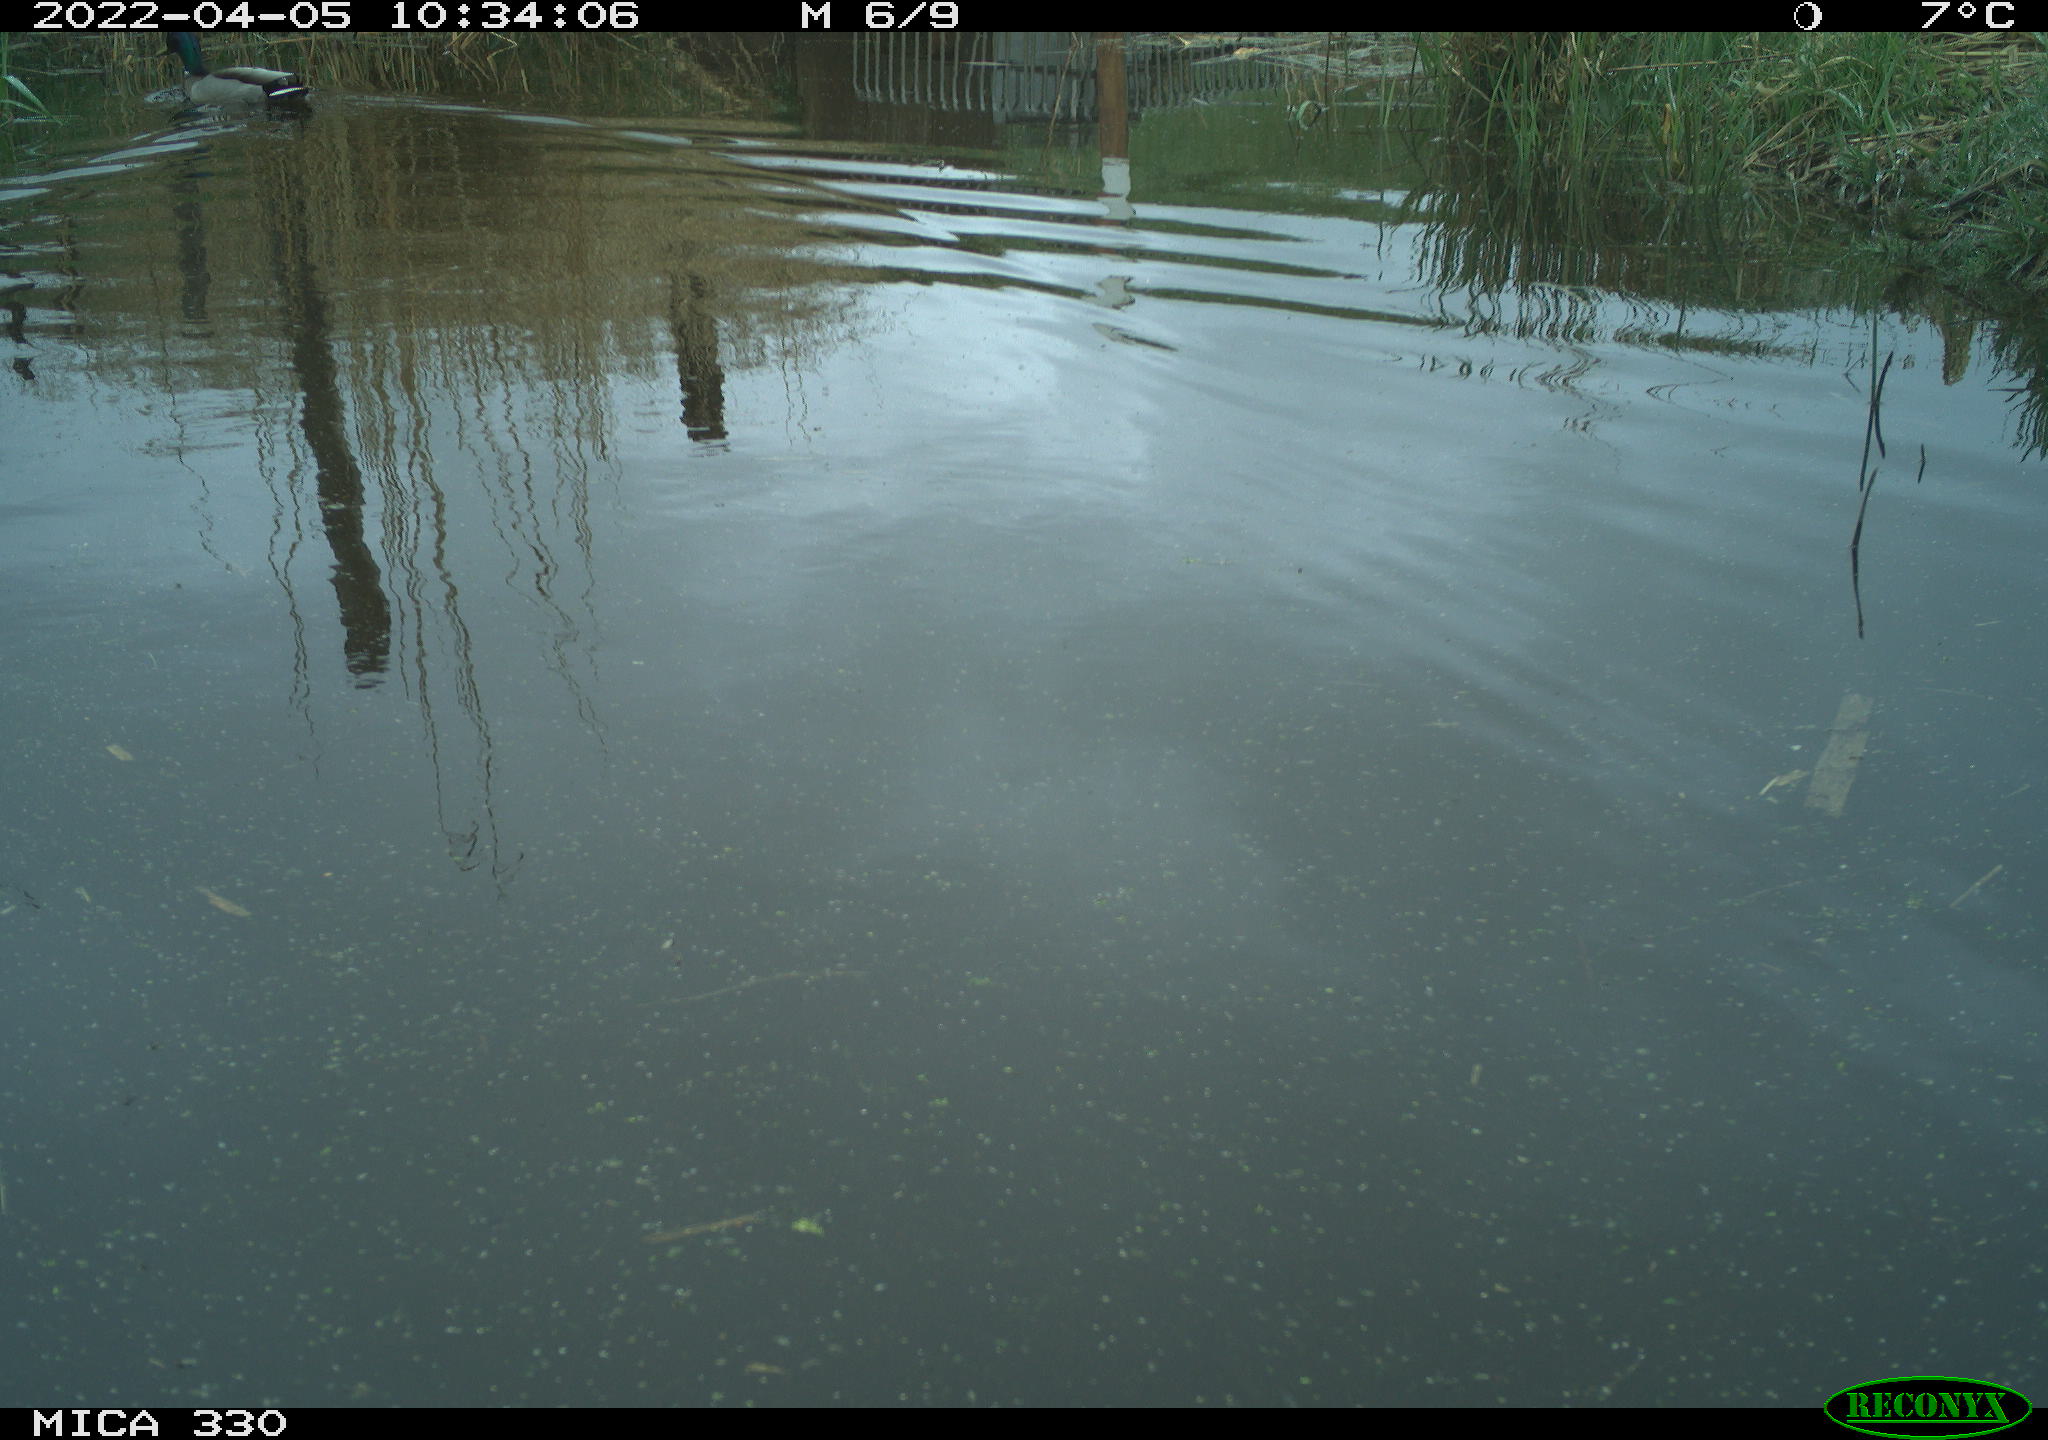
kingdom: Animalia
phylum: Chordata
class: Aves
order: Anseriformes
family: Anatidae
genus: Anas
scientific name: Anas platyrhynchos
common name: Mallard
